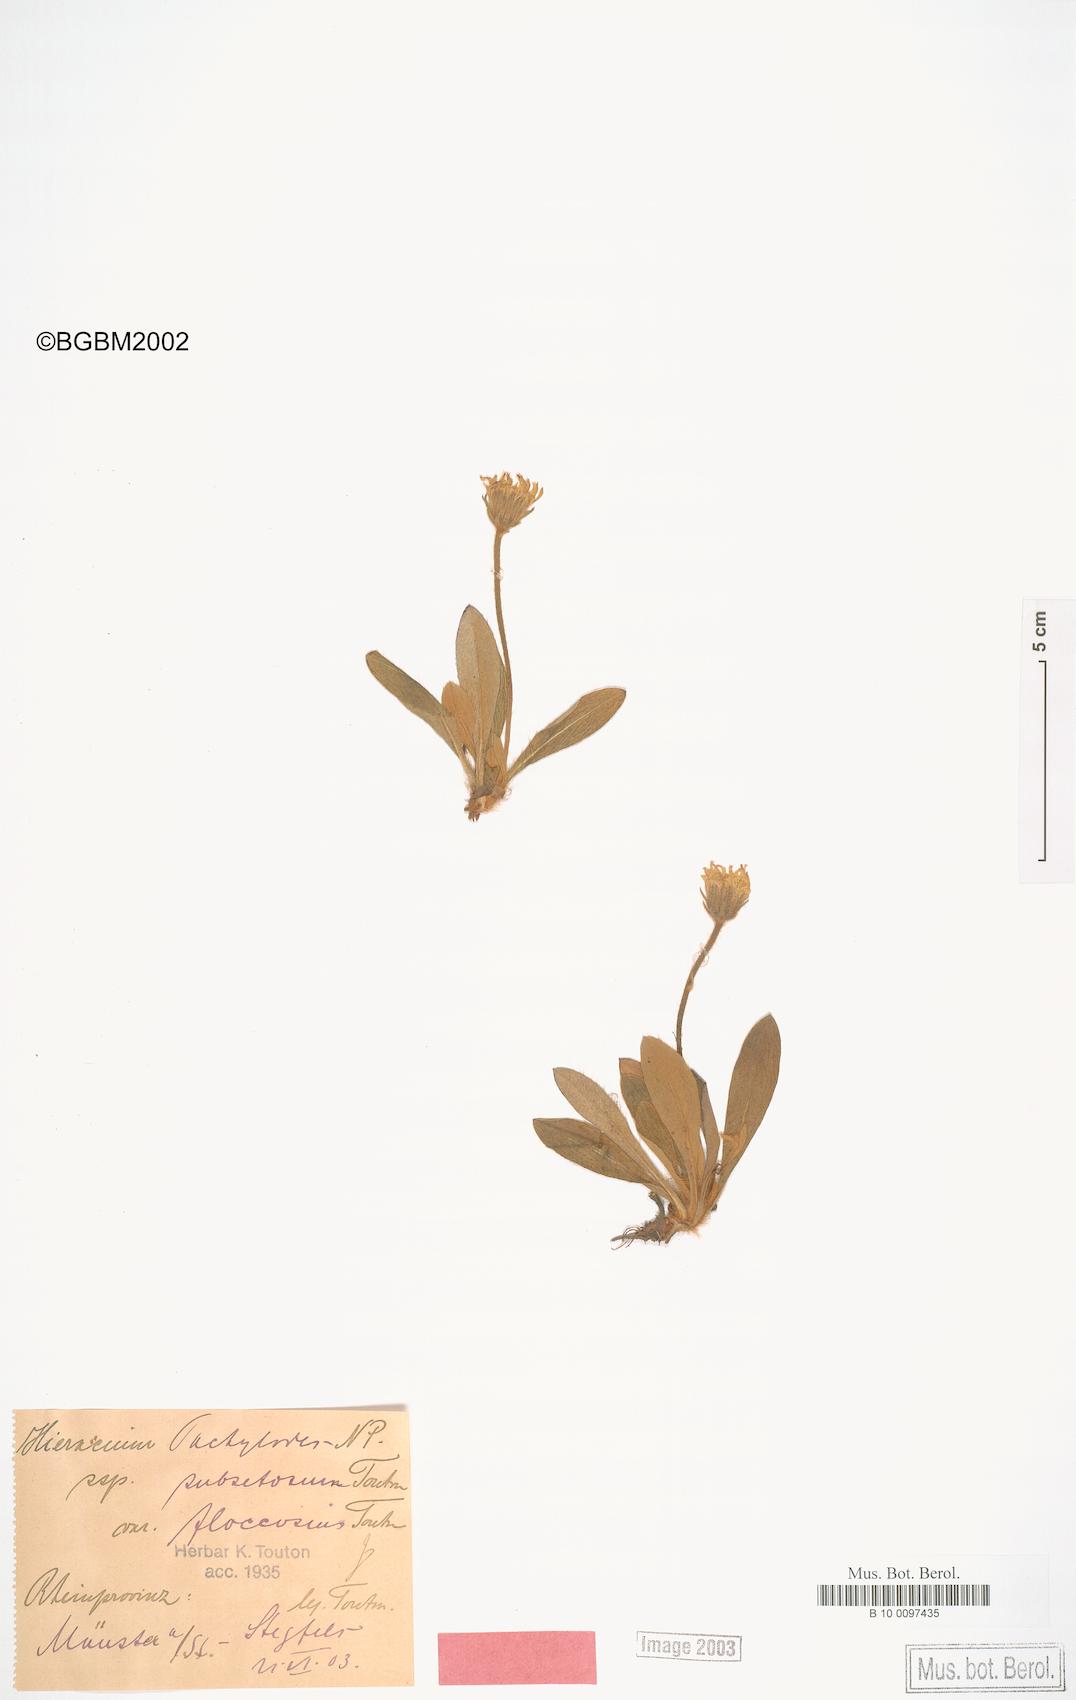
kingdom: Plantae
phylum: Tracheophyta
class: Magnoliopsida
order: Asterales
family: Asteraceae
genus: Pilosella
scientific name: Pilosella longisquama
